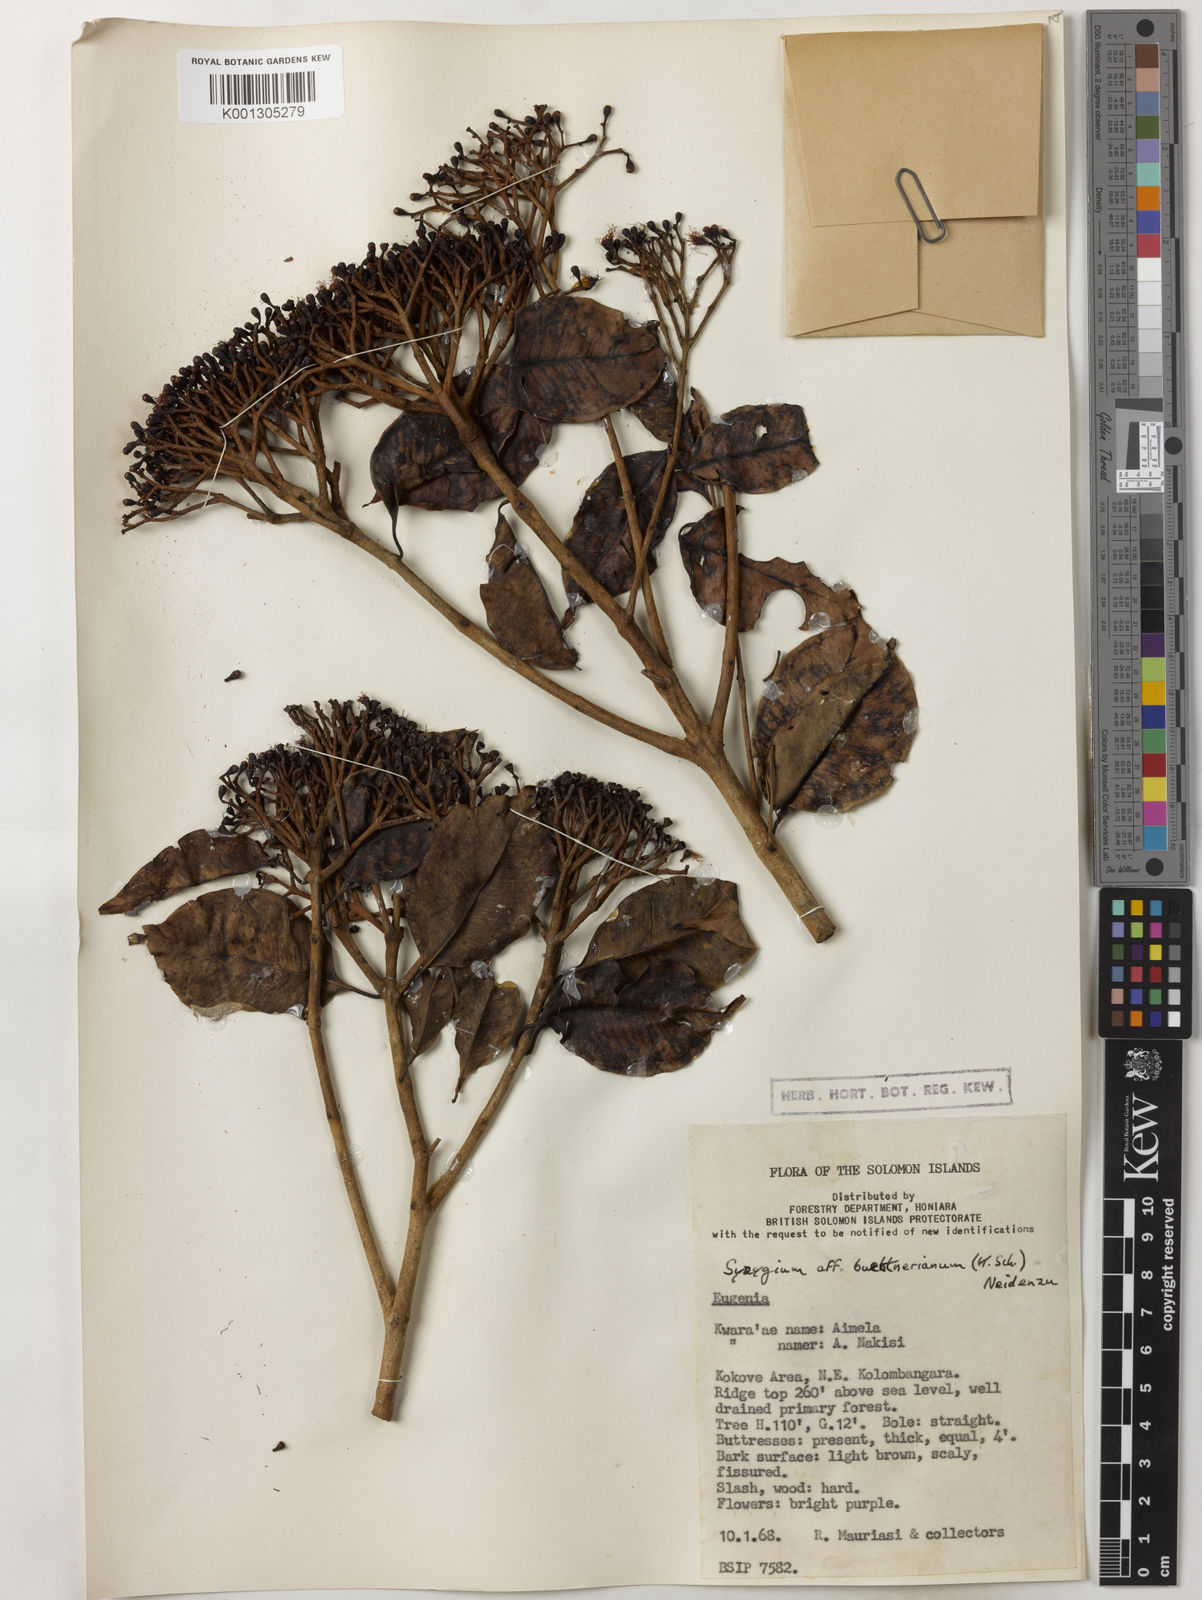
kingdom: Plantae
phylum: Tracheophyta
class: Magnoliopsida
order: Myrtales
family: Myrtaceae
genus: Syzygium
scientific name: Syzygium buettnerianum
